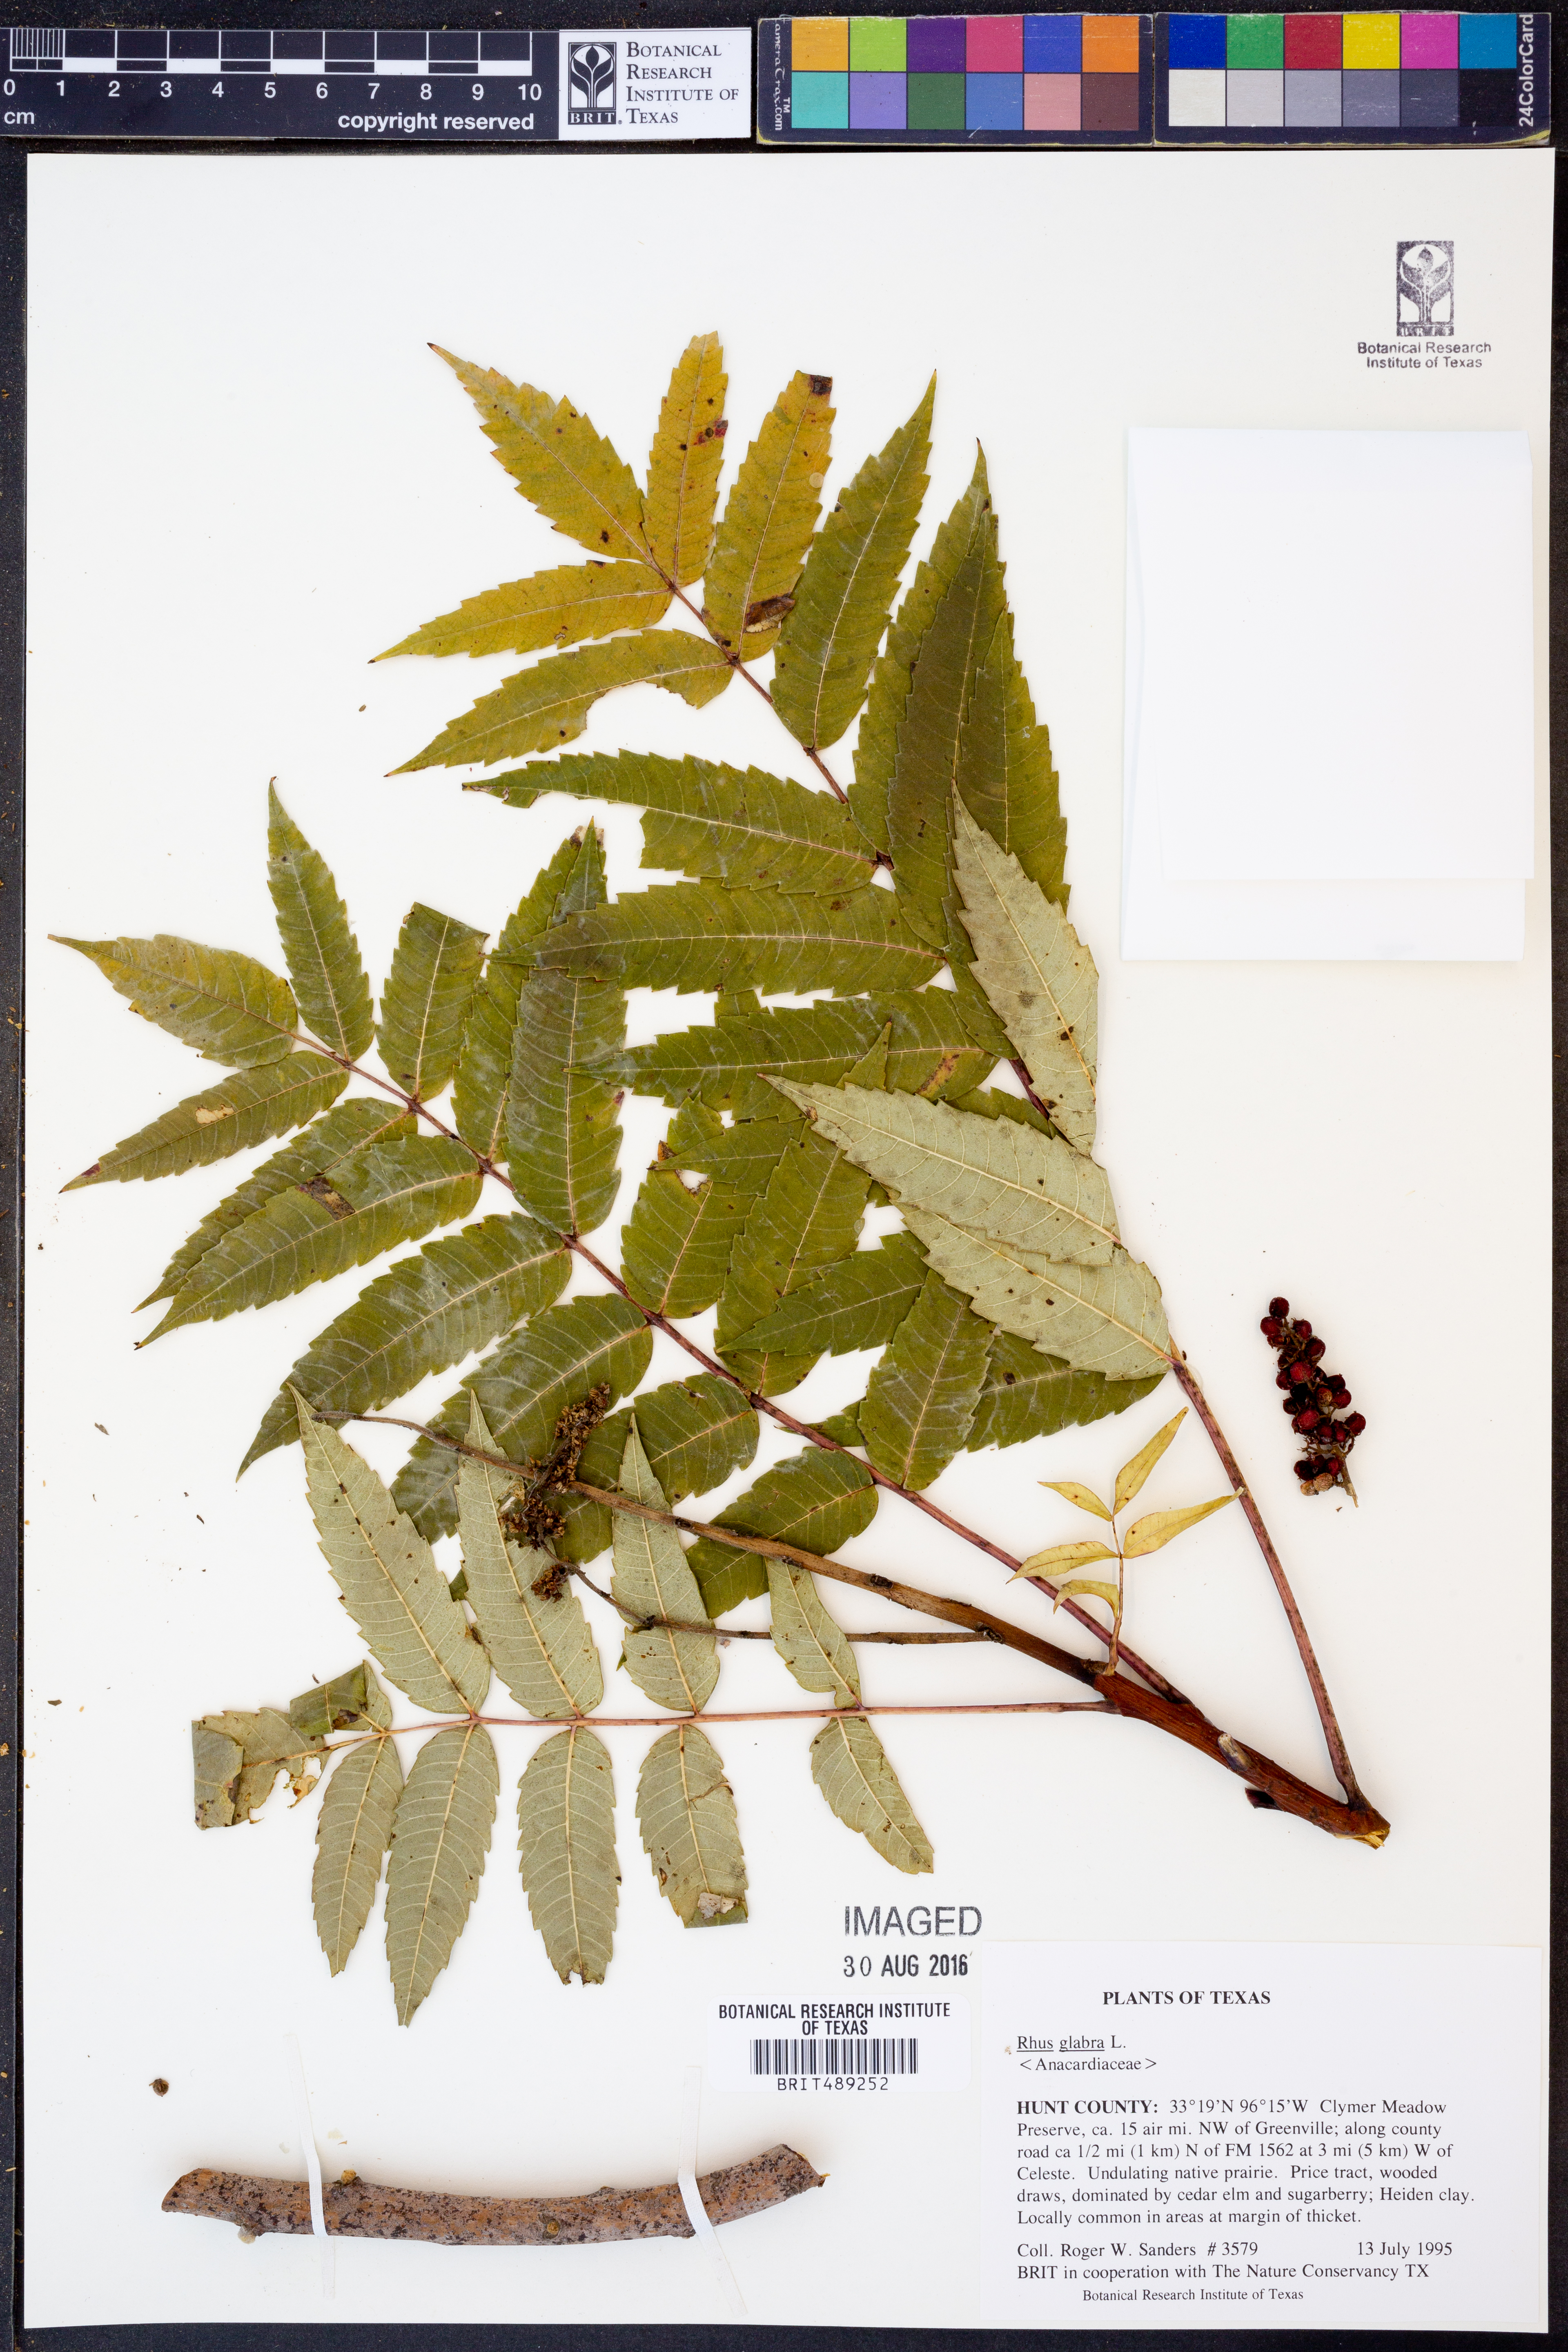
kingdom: Plantae
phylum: Tracheophyta
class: Magnoliopsida
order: Sapindales
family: Anacardiaceae
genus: Rhus
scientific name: Rhus glabra
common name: Scarlet sumac
